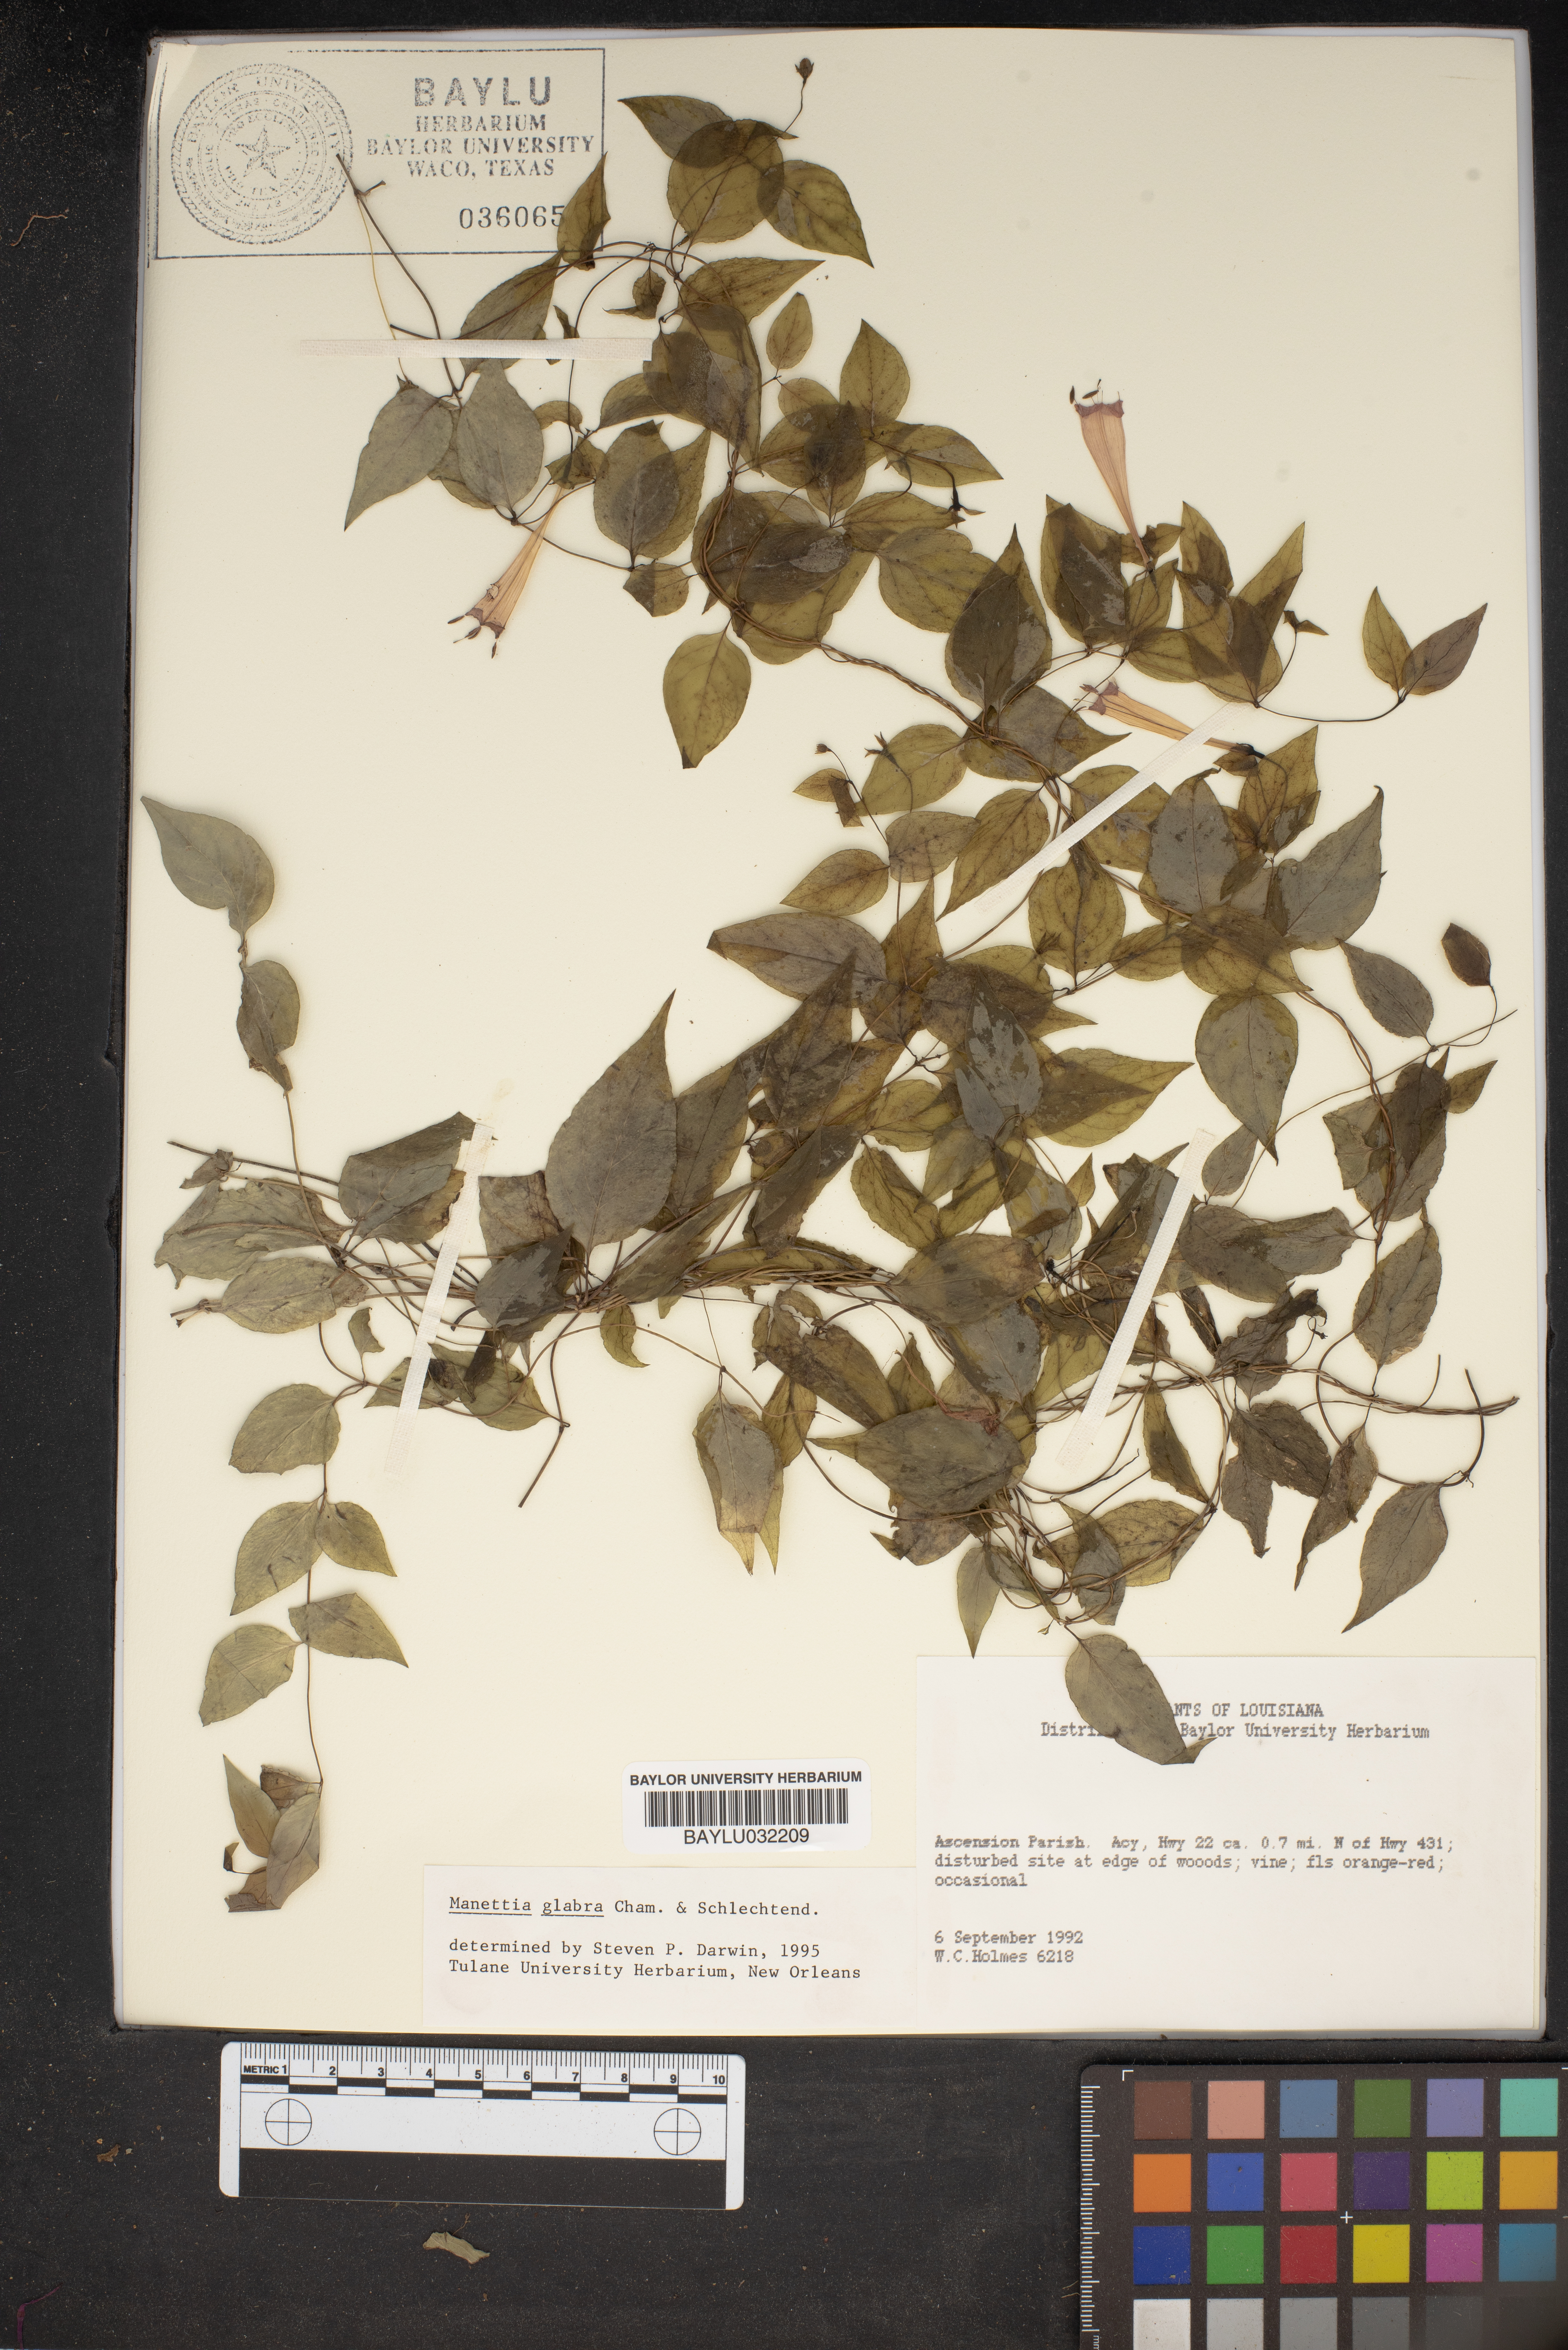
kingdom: Plantae
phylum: Tracheophyta
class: Magnoliopsida
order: Gentianales
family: Rubiaceae
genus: Manettia
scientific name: Manettia glabra
